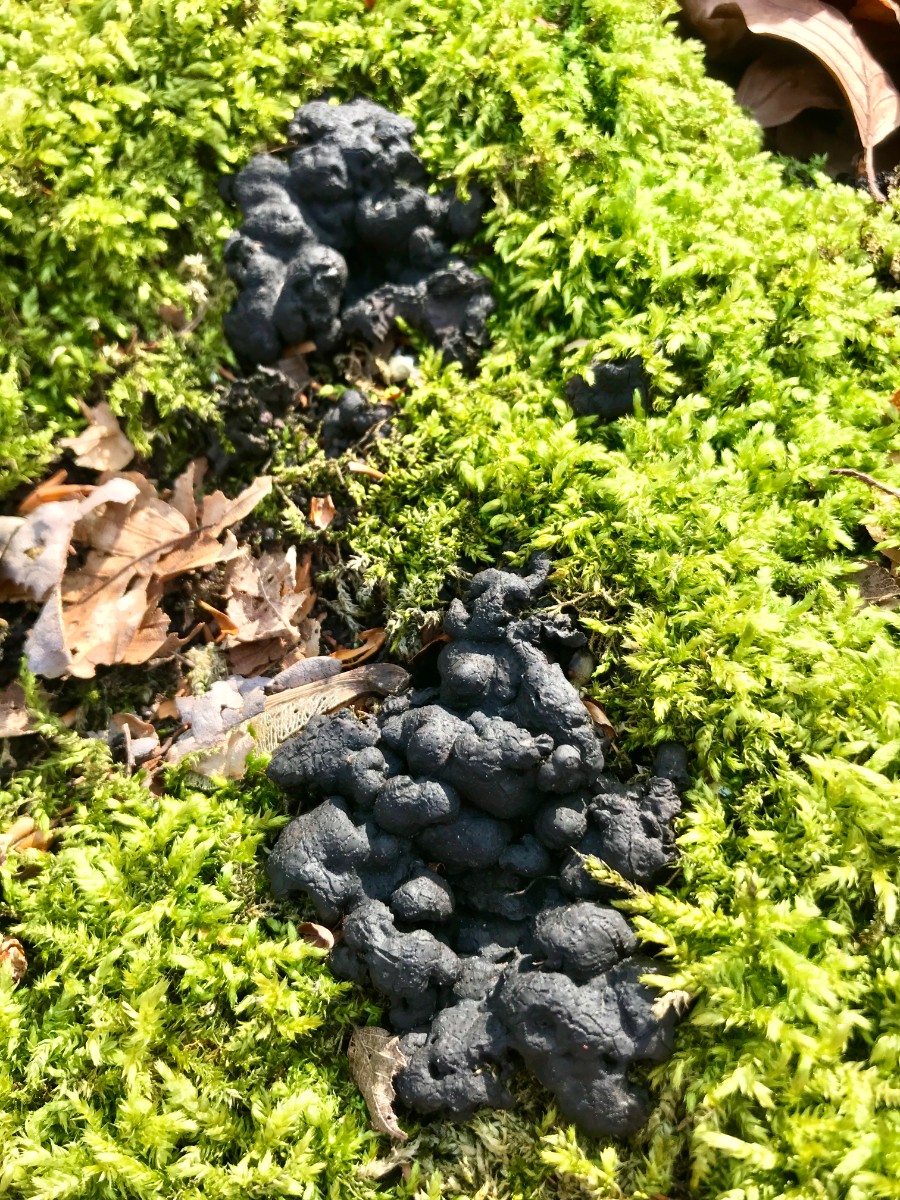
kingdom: Fungi
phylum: Ascomycota
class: Sordariomycetes
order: Xylariales
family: Xylariaceae
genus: Kretzschmaria
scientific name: Kretzschmaria deusta
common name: stor kulsvamp
